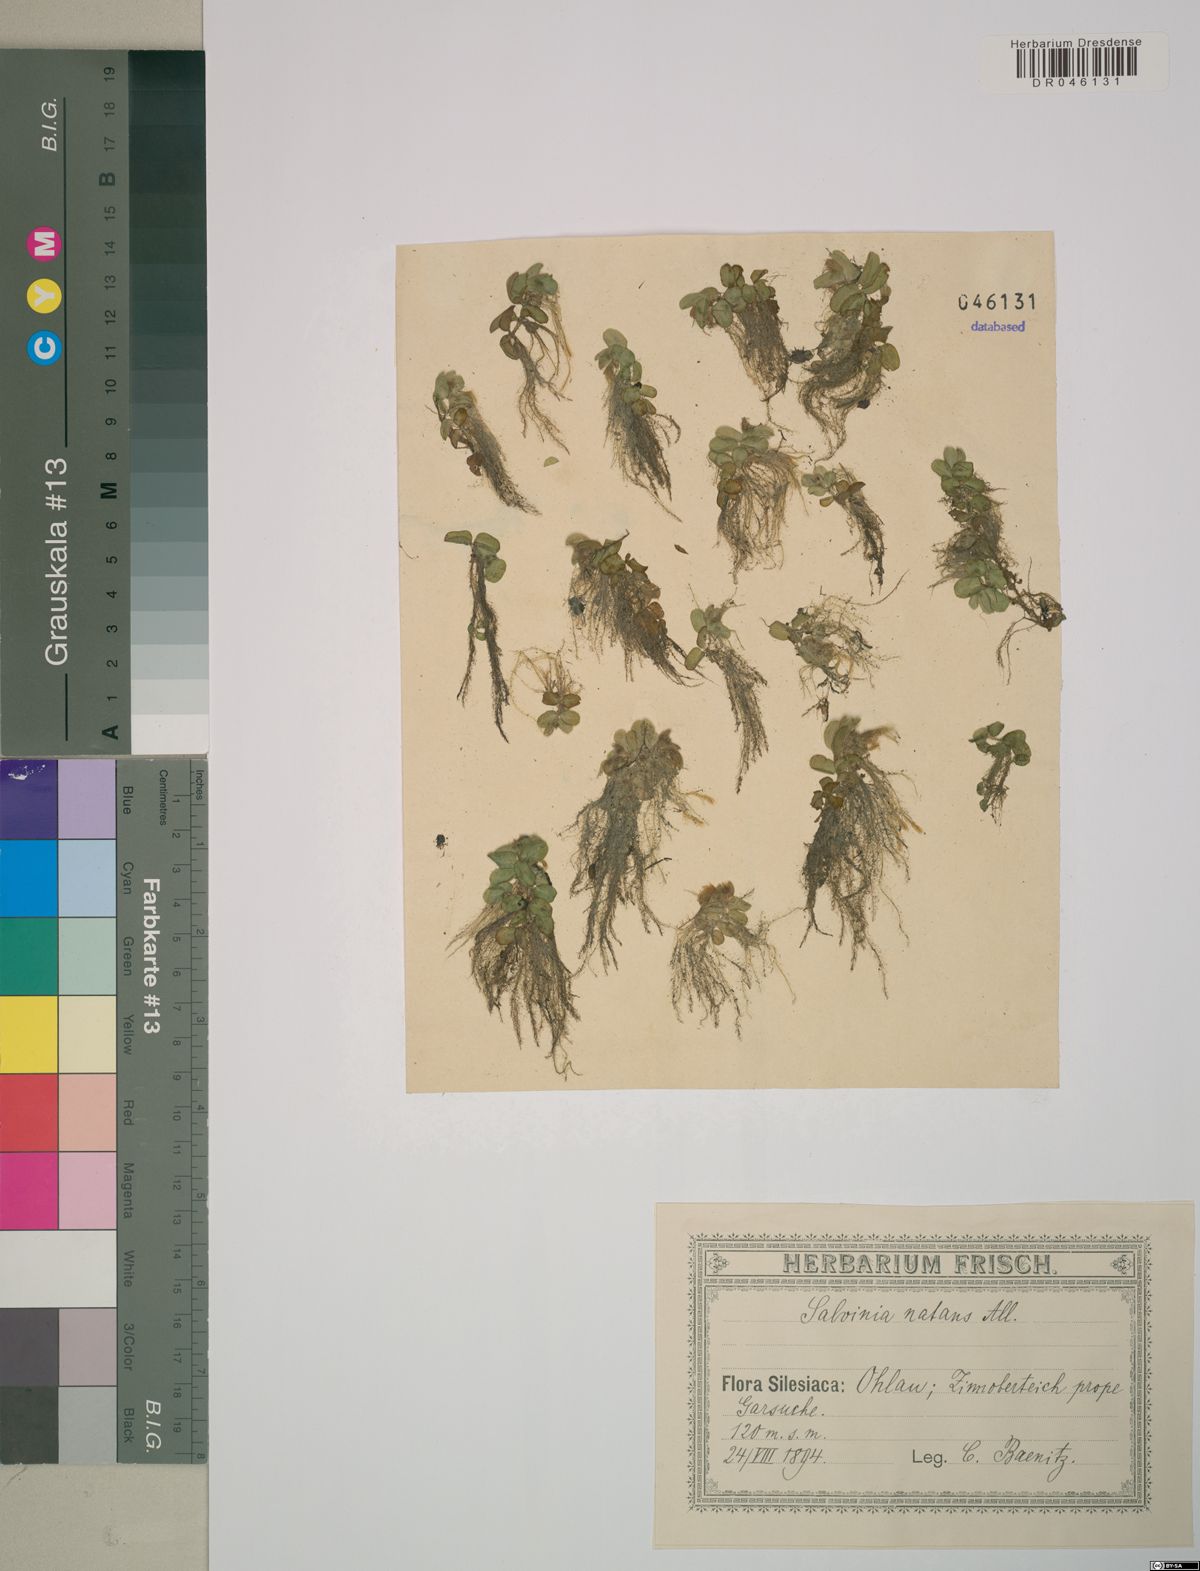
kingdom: Plantae
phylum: Tracheophyta
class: Polypodiopsida
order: Salviniales
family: Salviniaceae
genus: Salvinia
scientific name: Salvinia natans
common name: Floating fern
